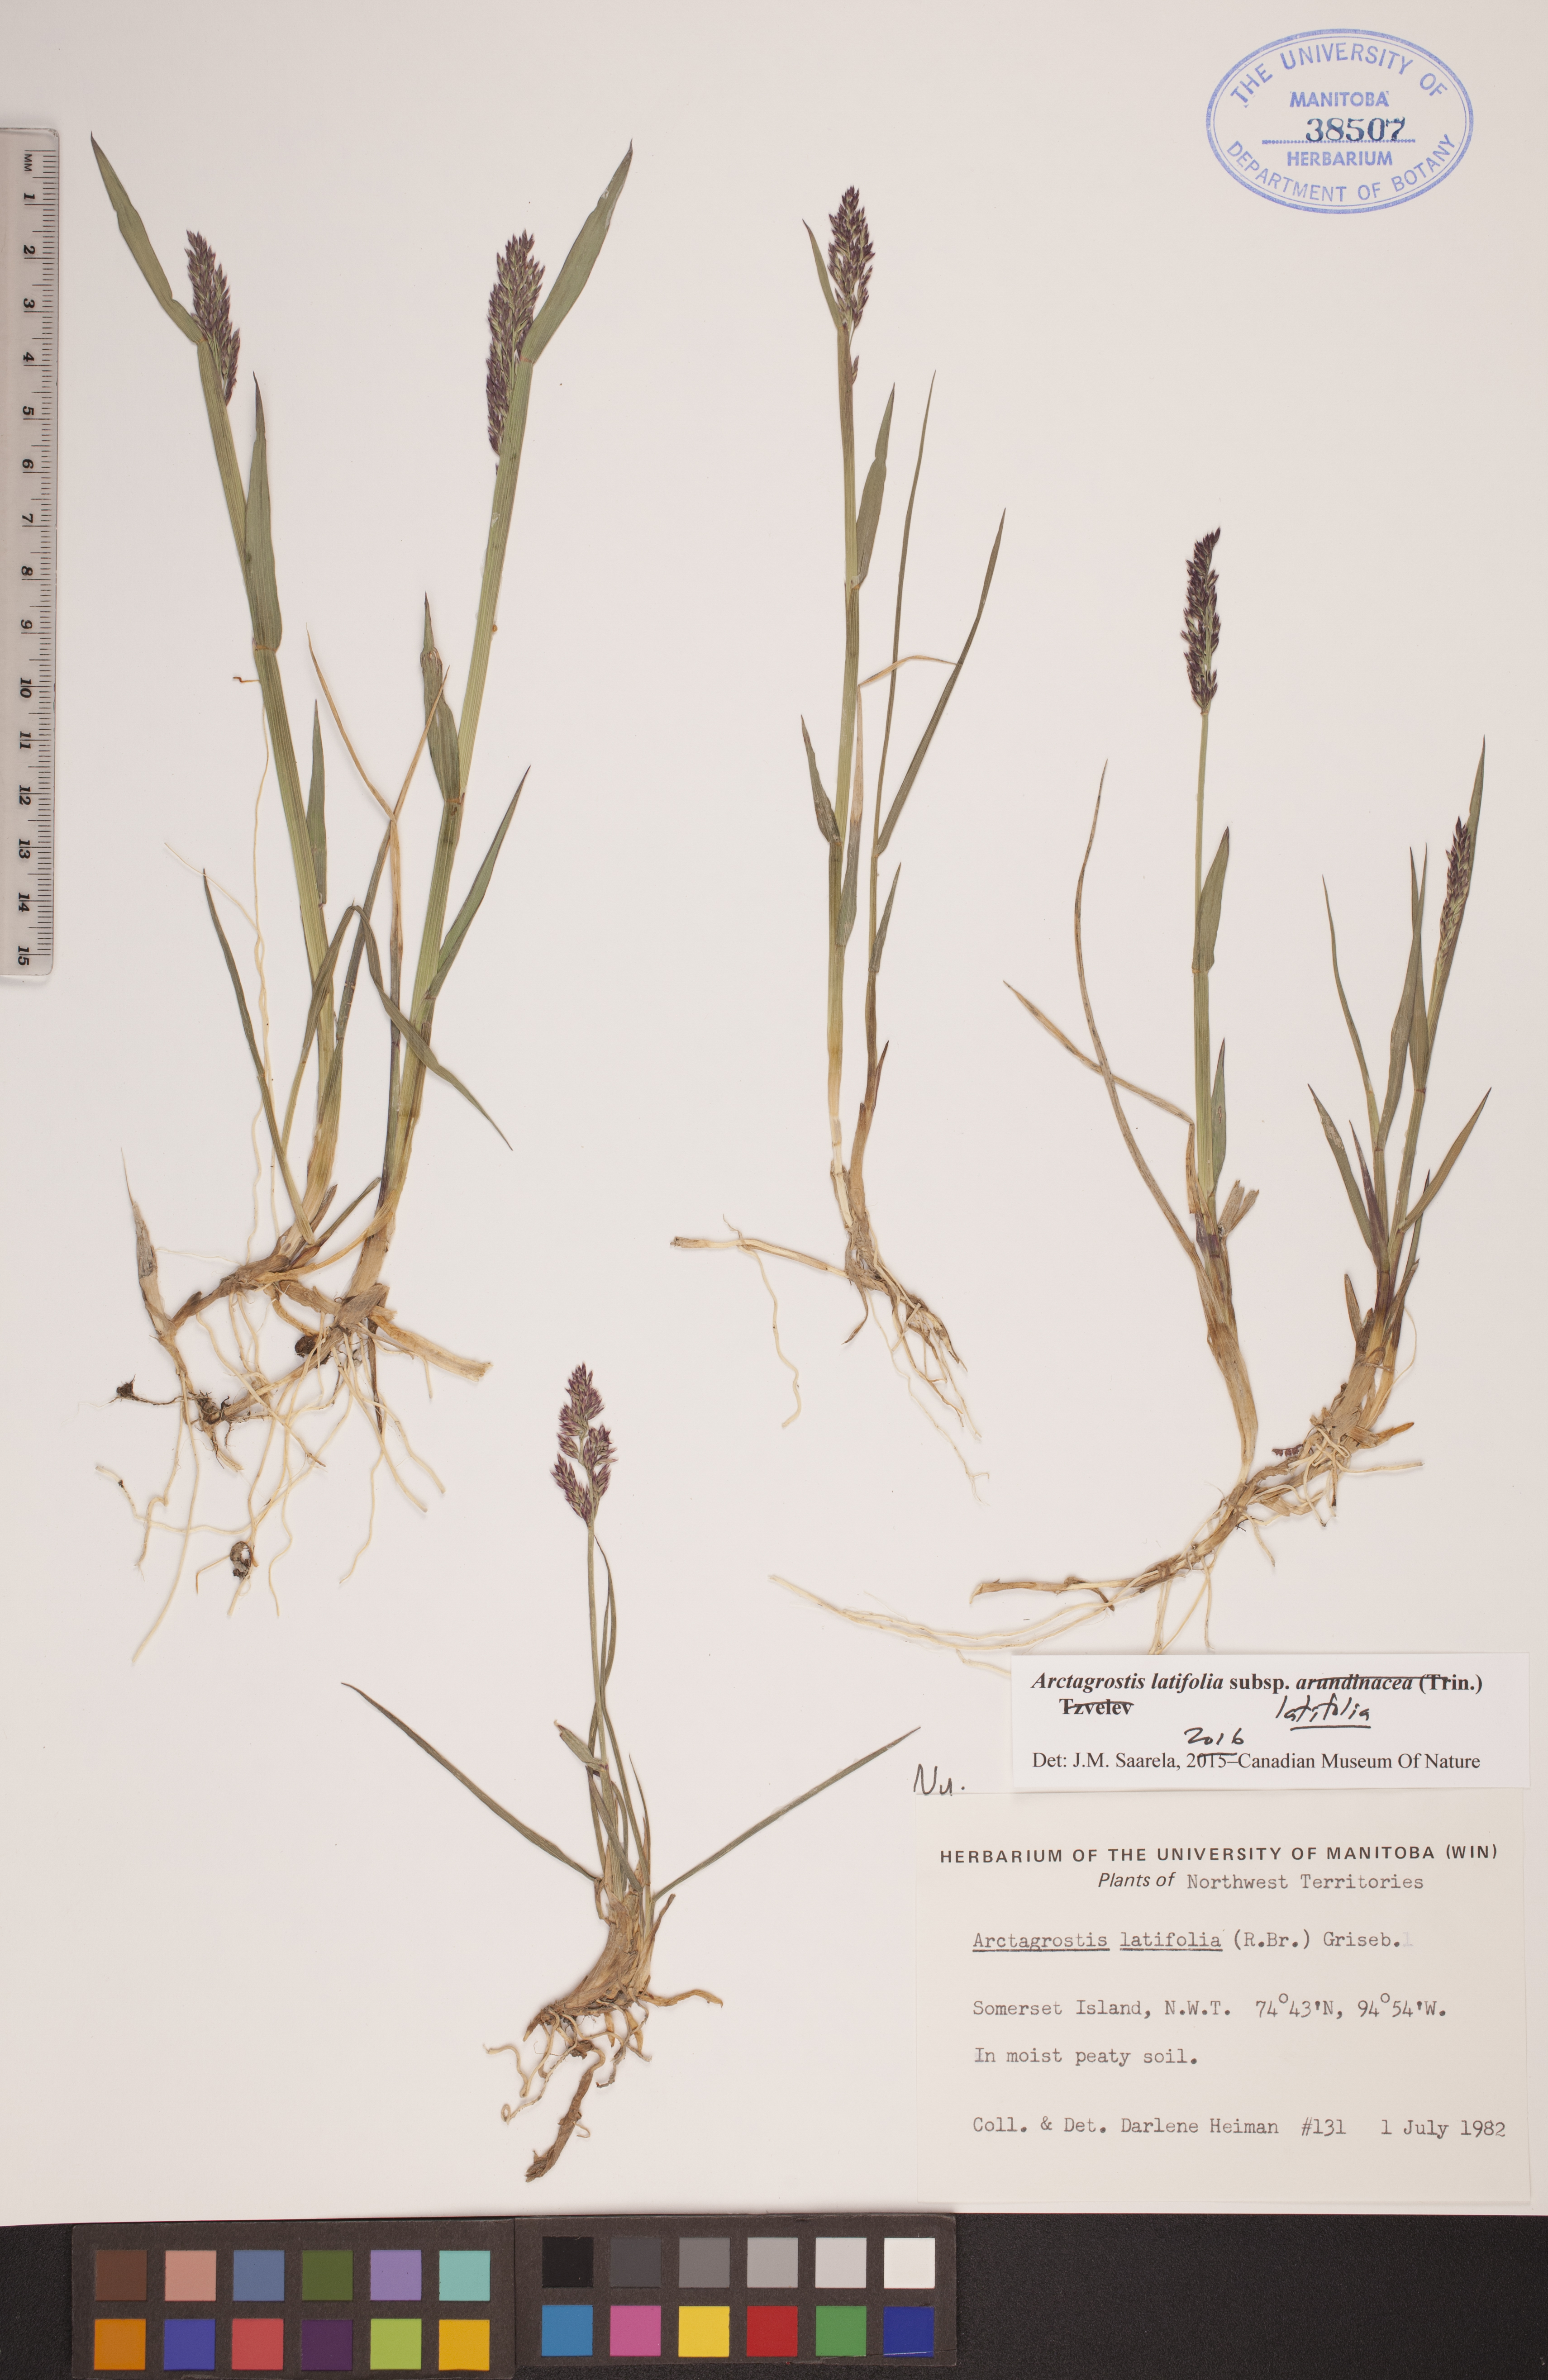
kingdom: Plantae
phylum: Tracheophyta
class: Liliopsida
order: Poales
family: Poaceae
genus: Arctagrostis
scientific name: Arctagrostis latifolia
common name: Arctic grass
